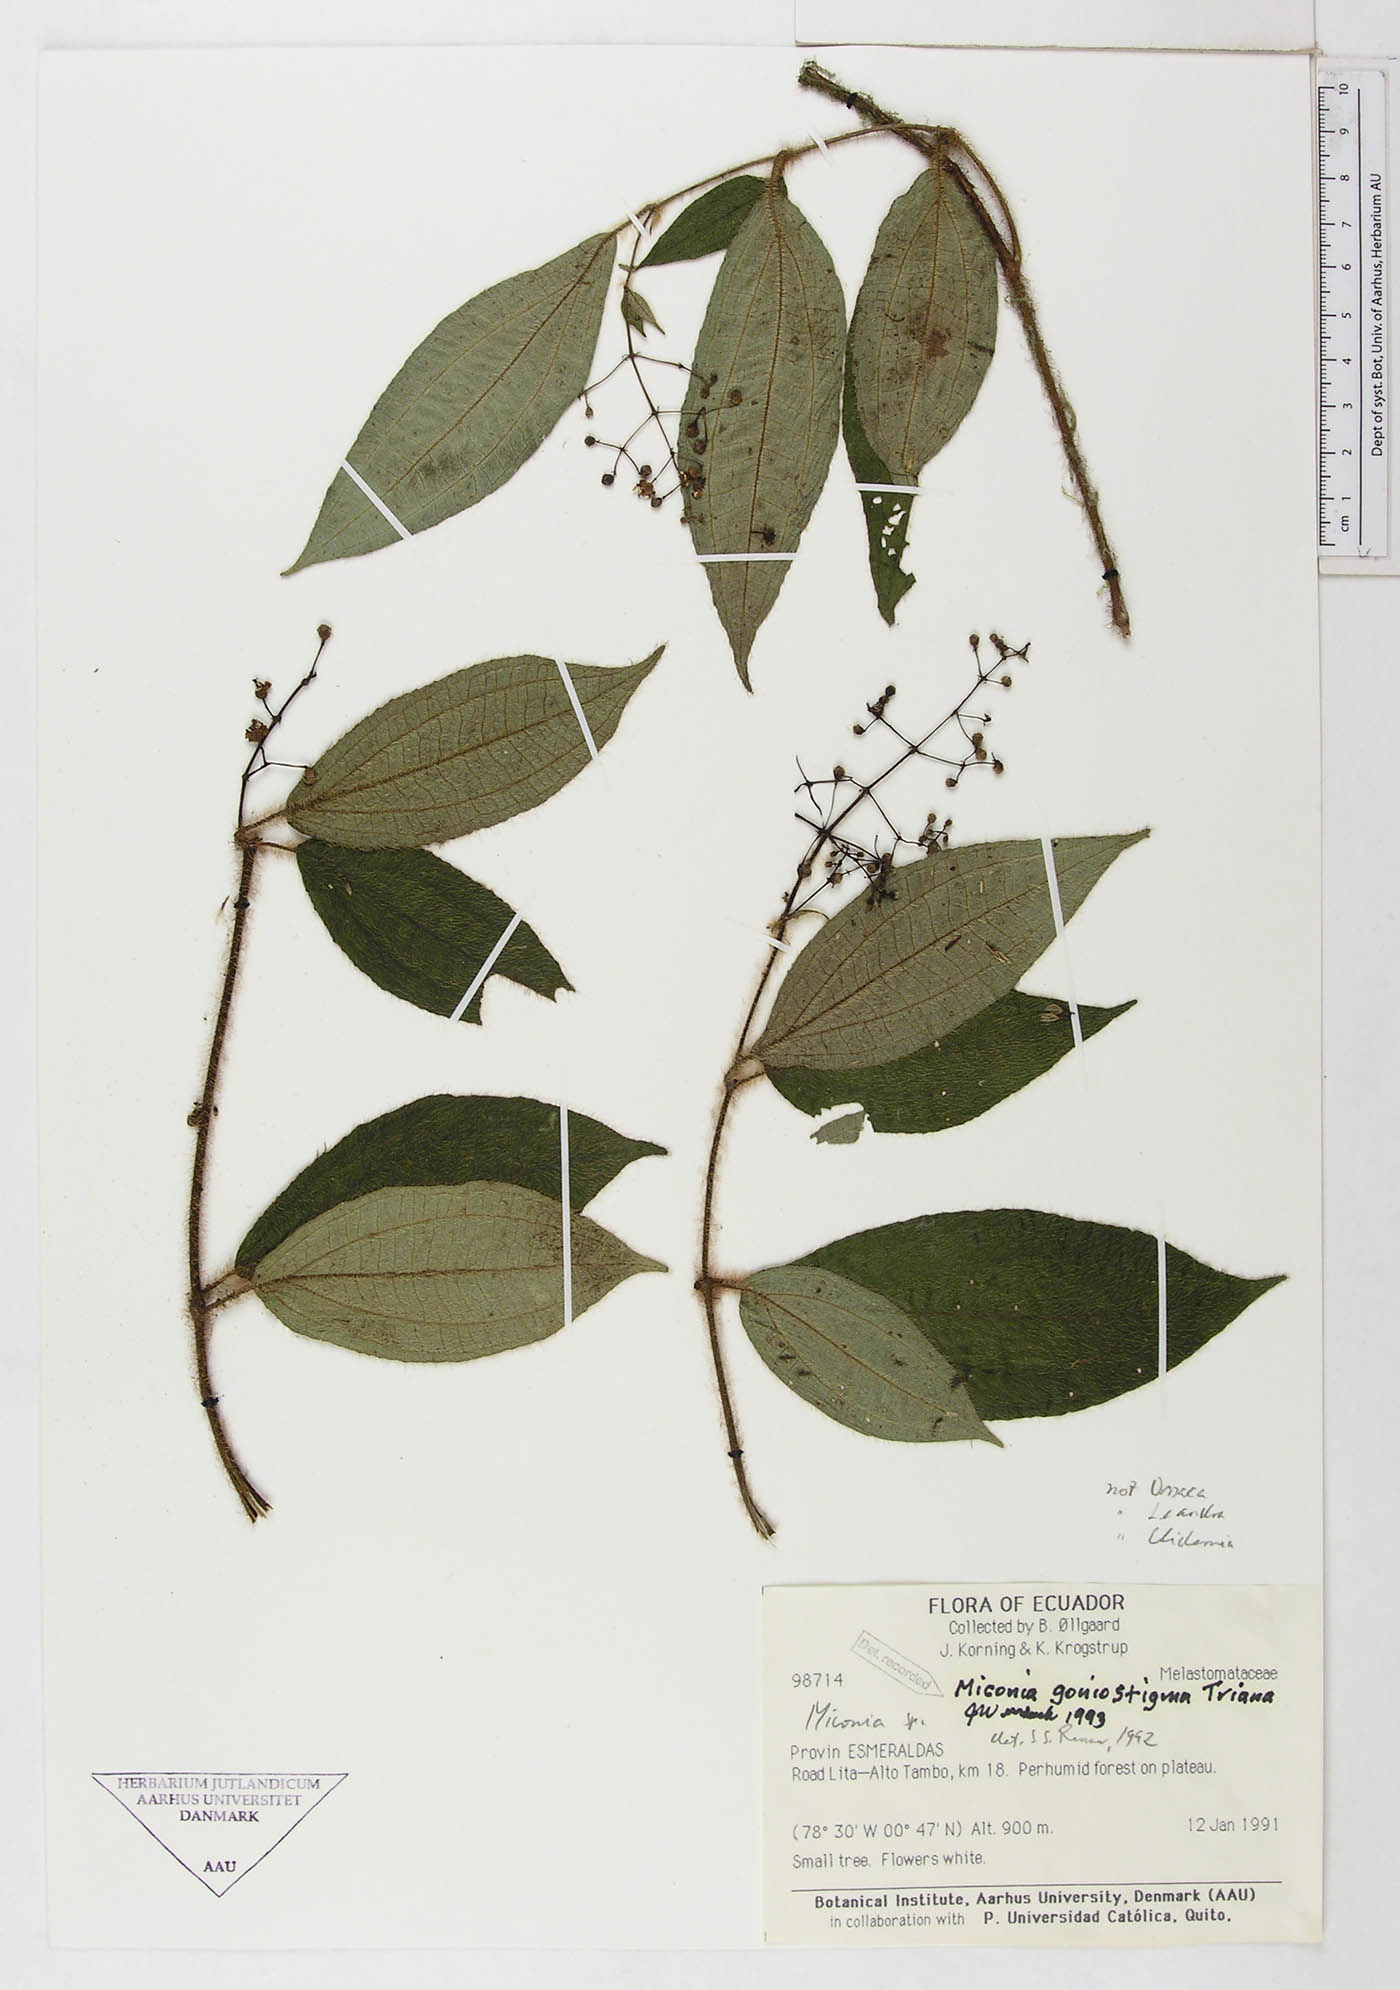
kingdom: Plantae
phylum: Tracheophyta
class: Magnoliopsida
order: Myrtales
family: Melastomataceae
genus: Miconia
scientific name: Miconia goniostigma
